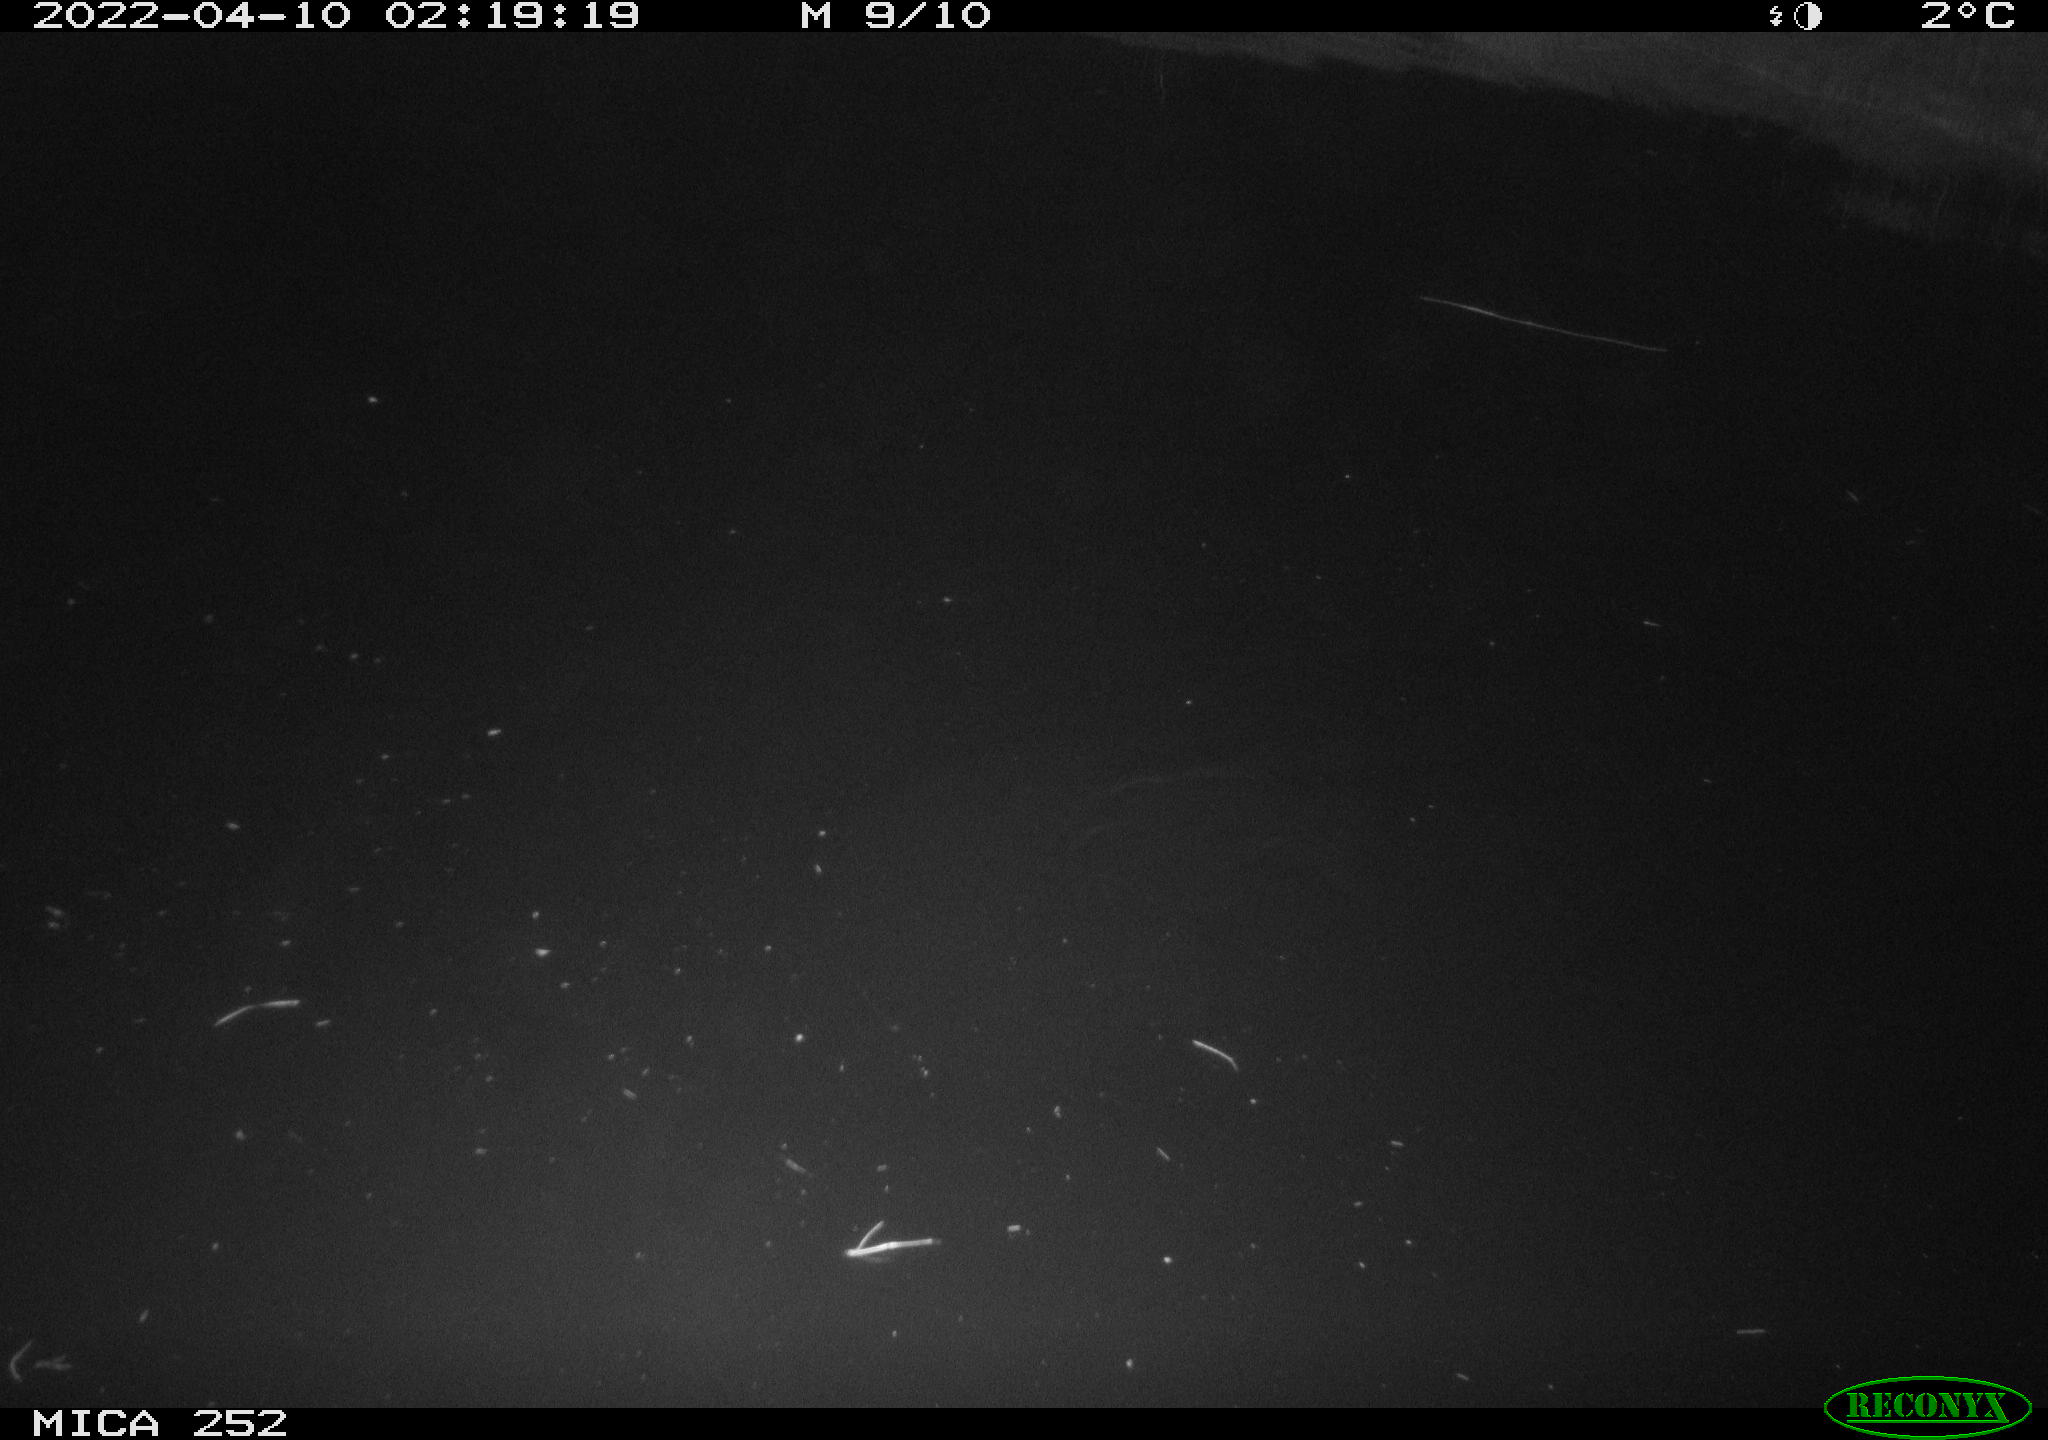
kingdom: Animalia
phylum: Chordata
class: Mammalia
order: Rodentia
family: Castoridae
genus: Castor
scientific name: Castor fiber
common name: Eurasian beaver
